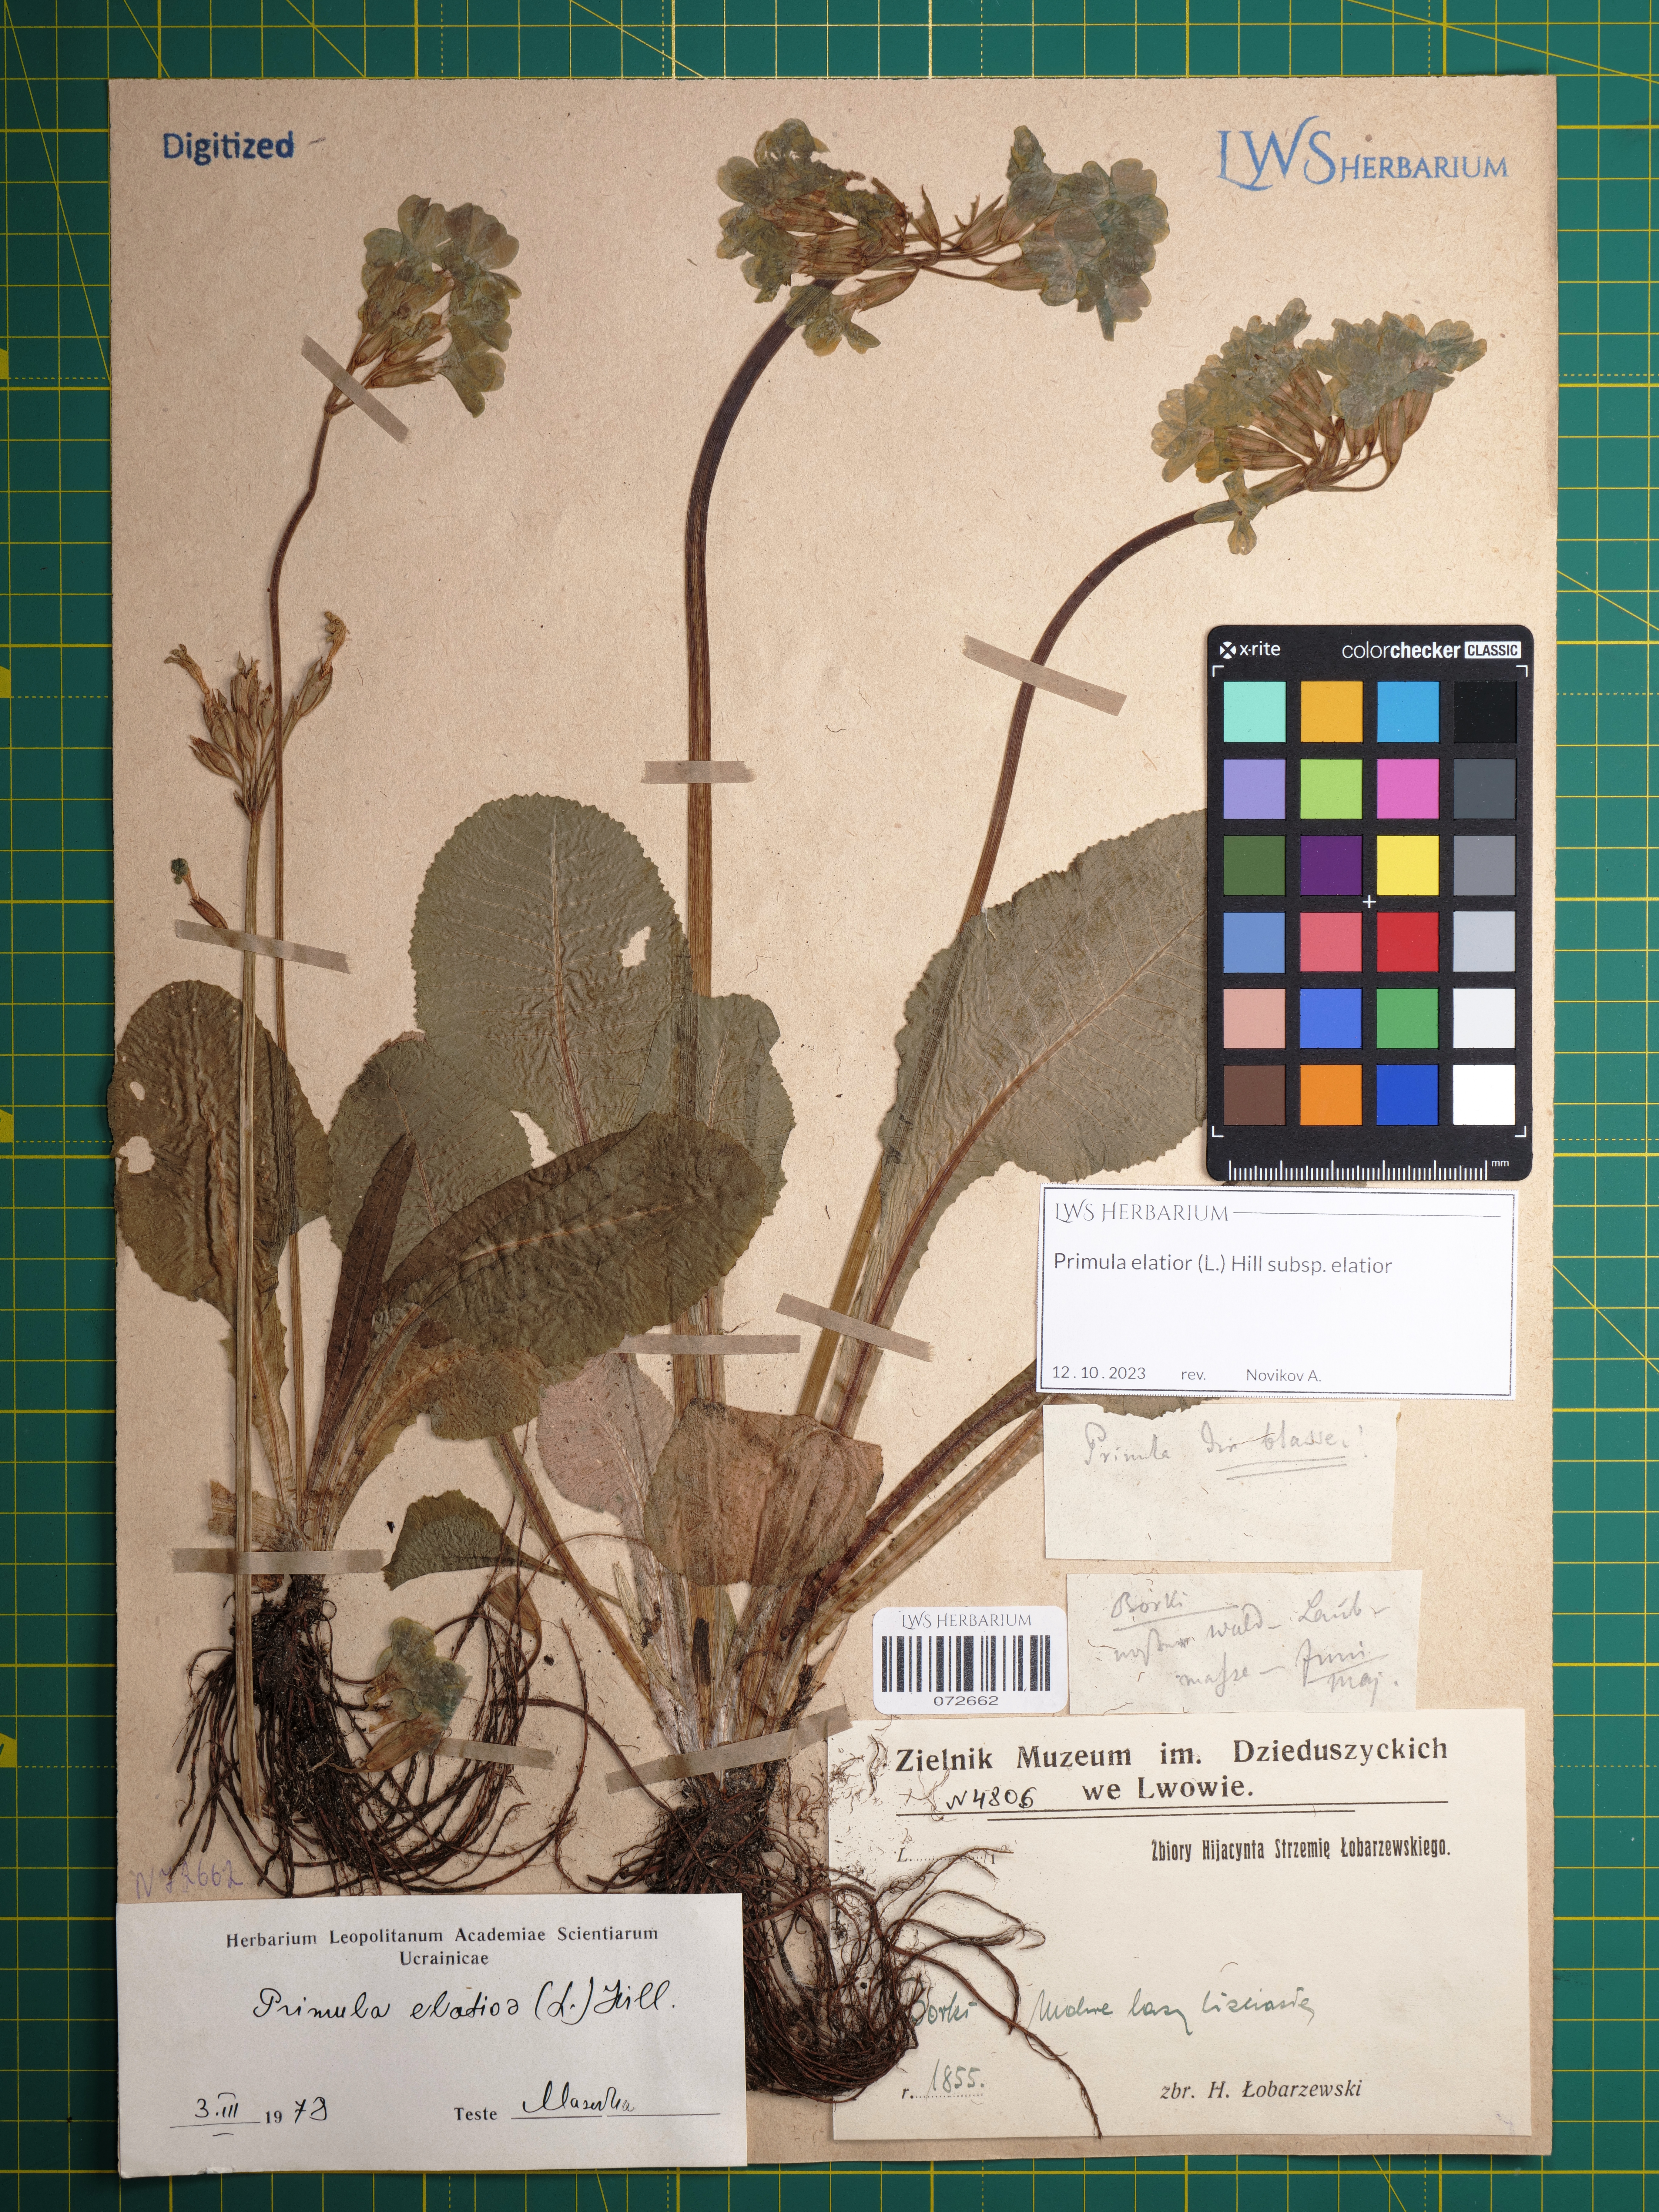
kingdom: Plantae
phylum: Tracheophyta
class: Magnoliopsida
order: Ericales
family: Primulaceae
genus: Primula
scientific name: Primula elatior
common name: Oxlip
